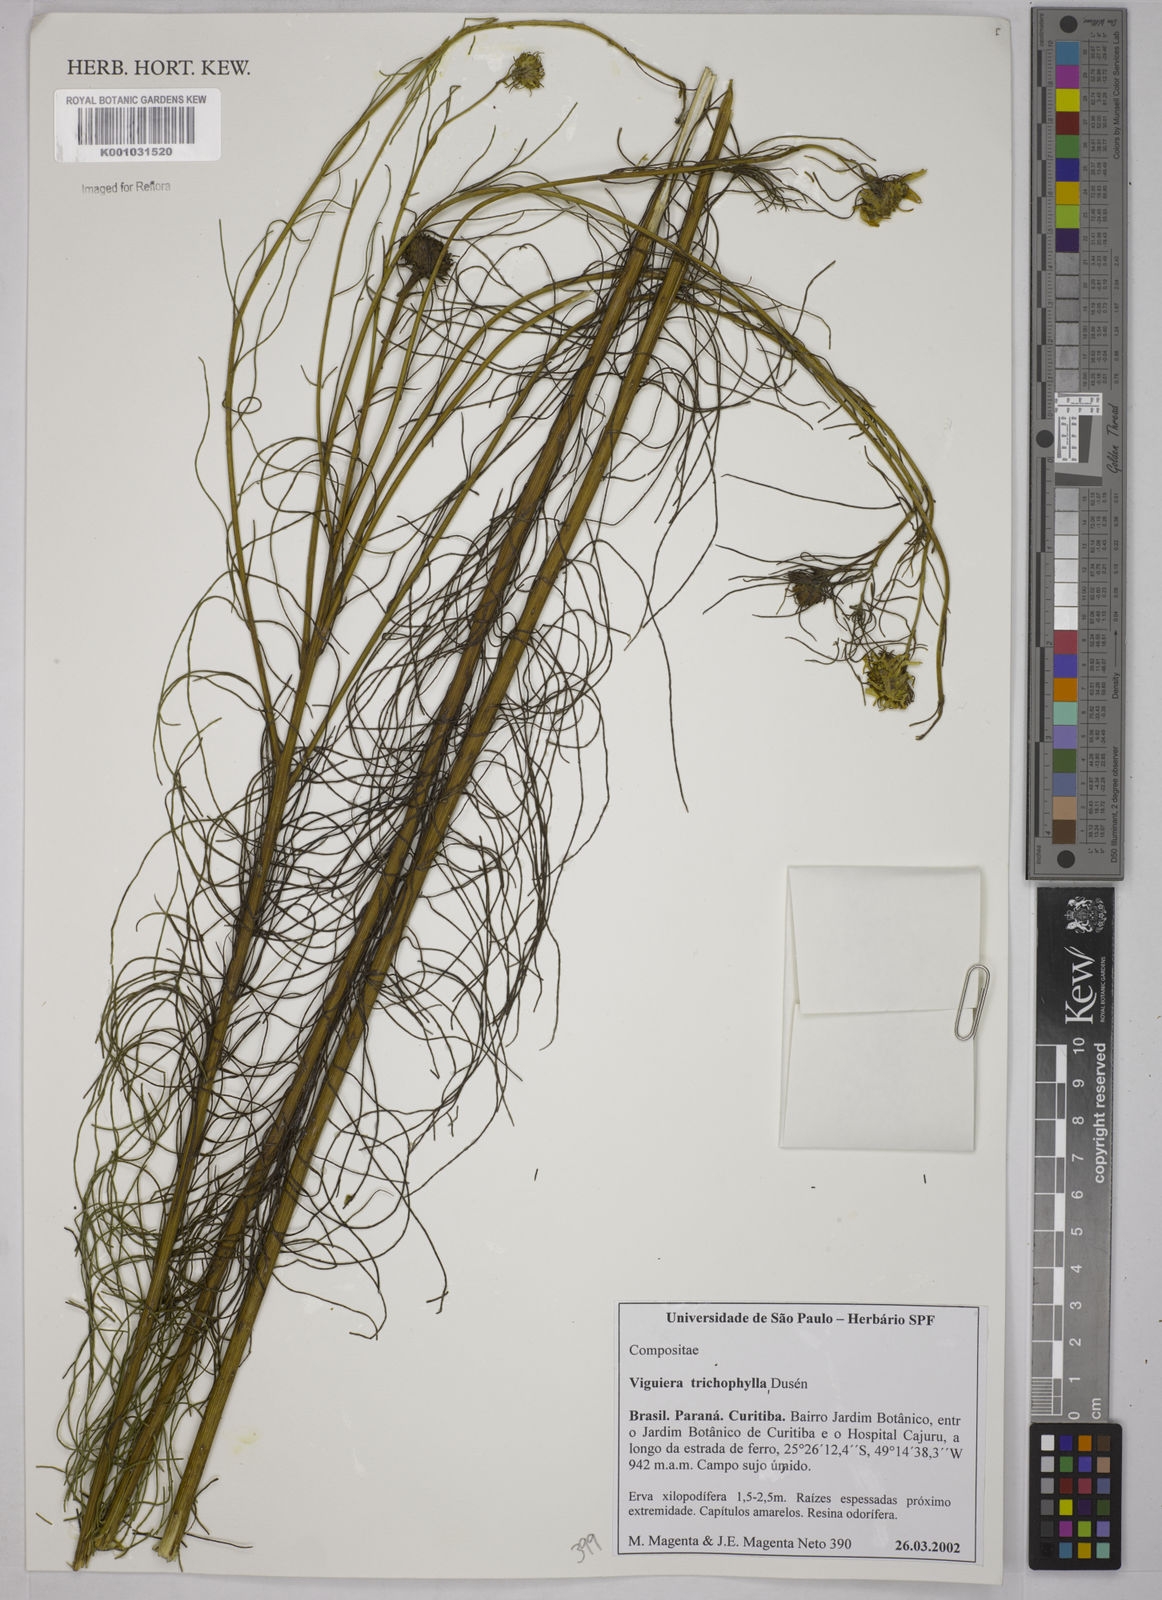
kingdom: Plantae
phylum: Tracheophyta
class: Magnoliopsida
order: Asterales
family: Asteraceae
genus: Viguiera
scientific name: Viguiera
